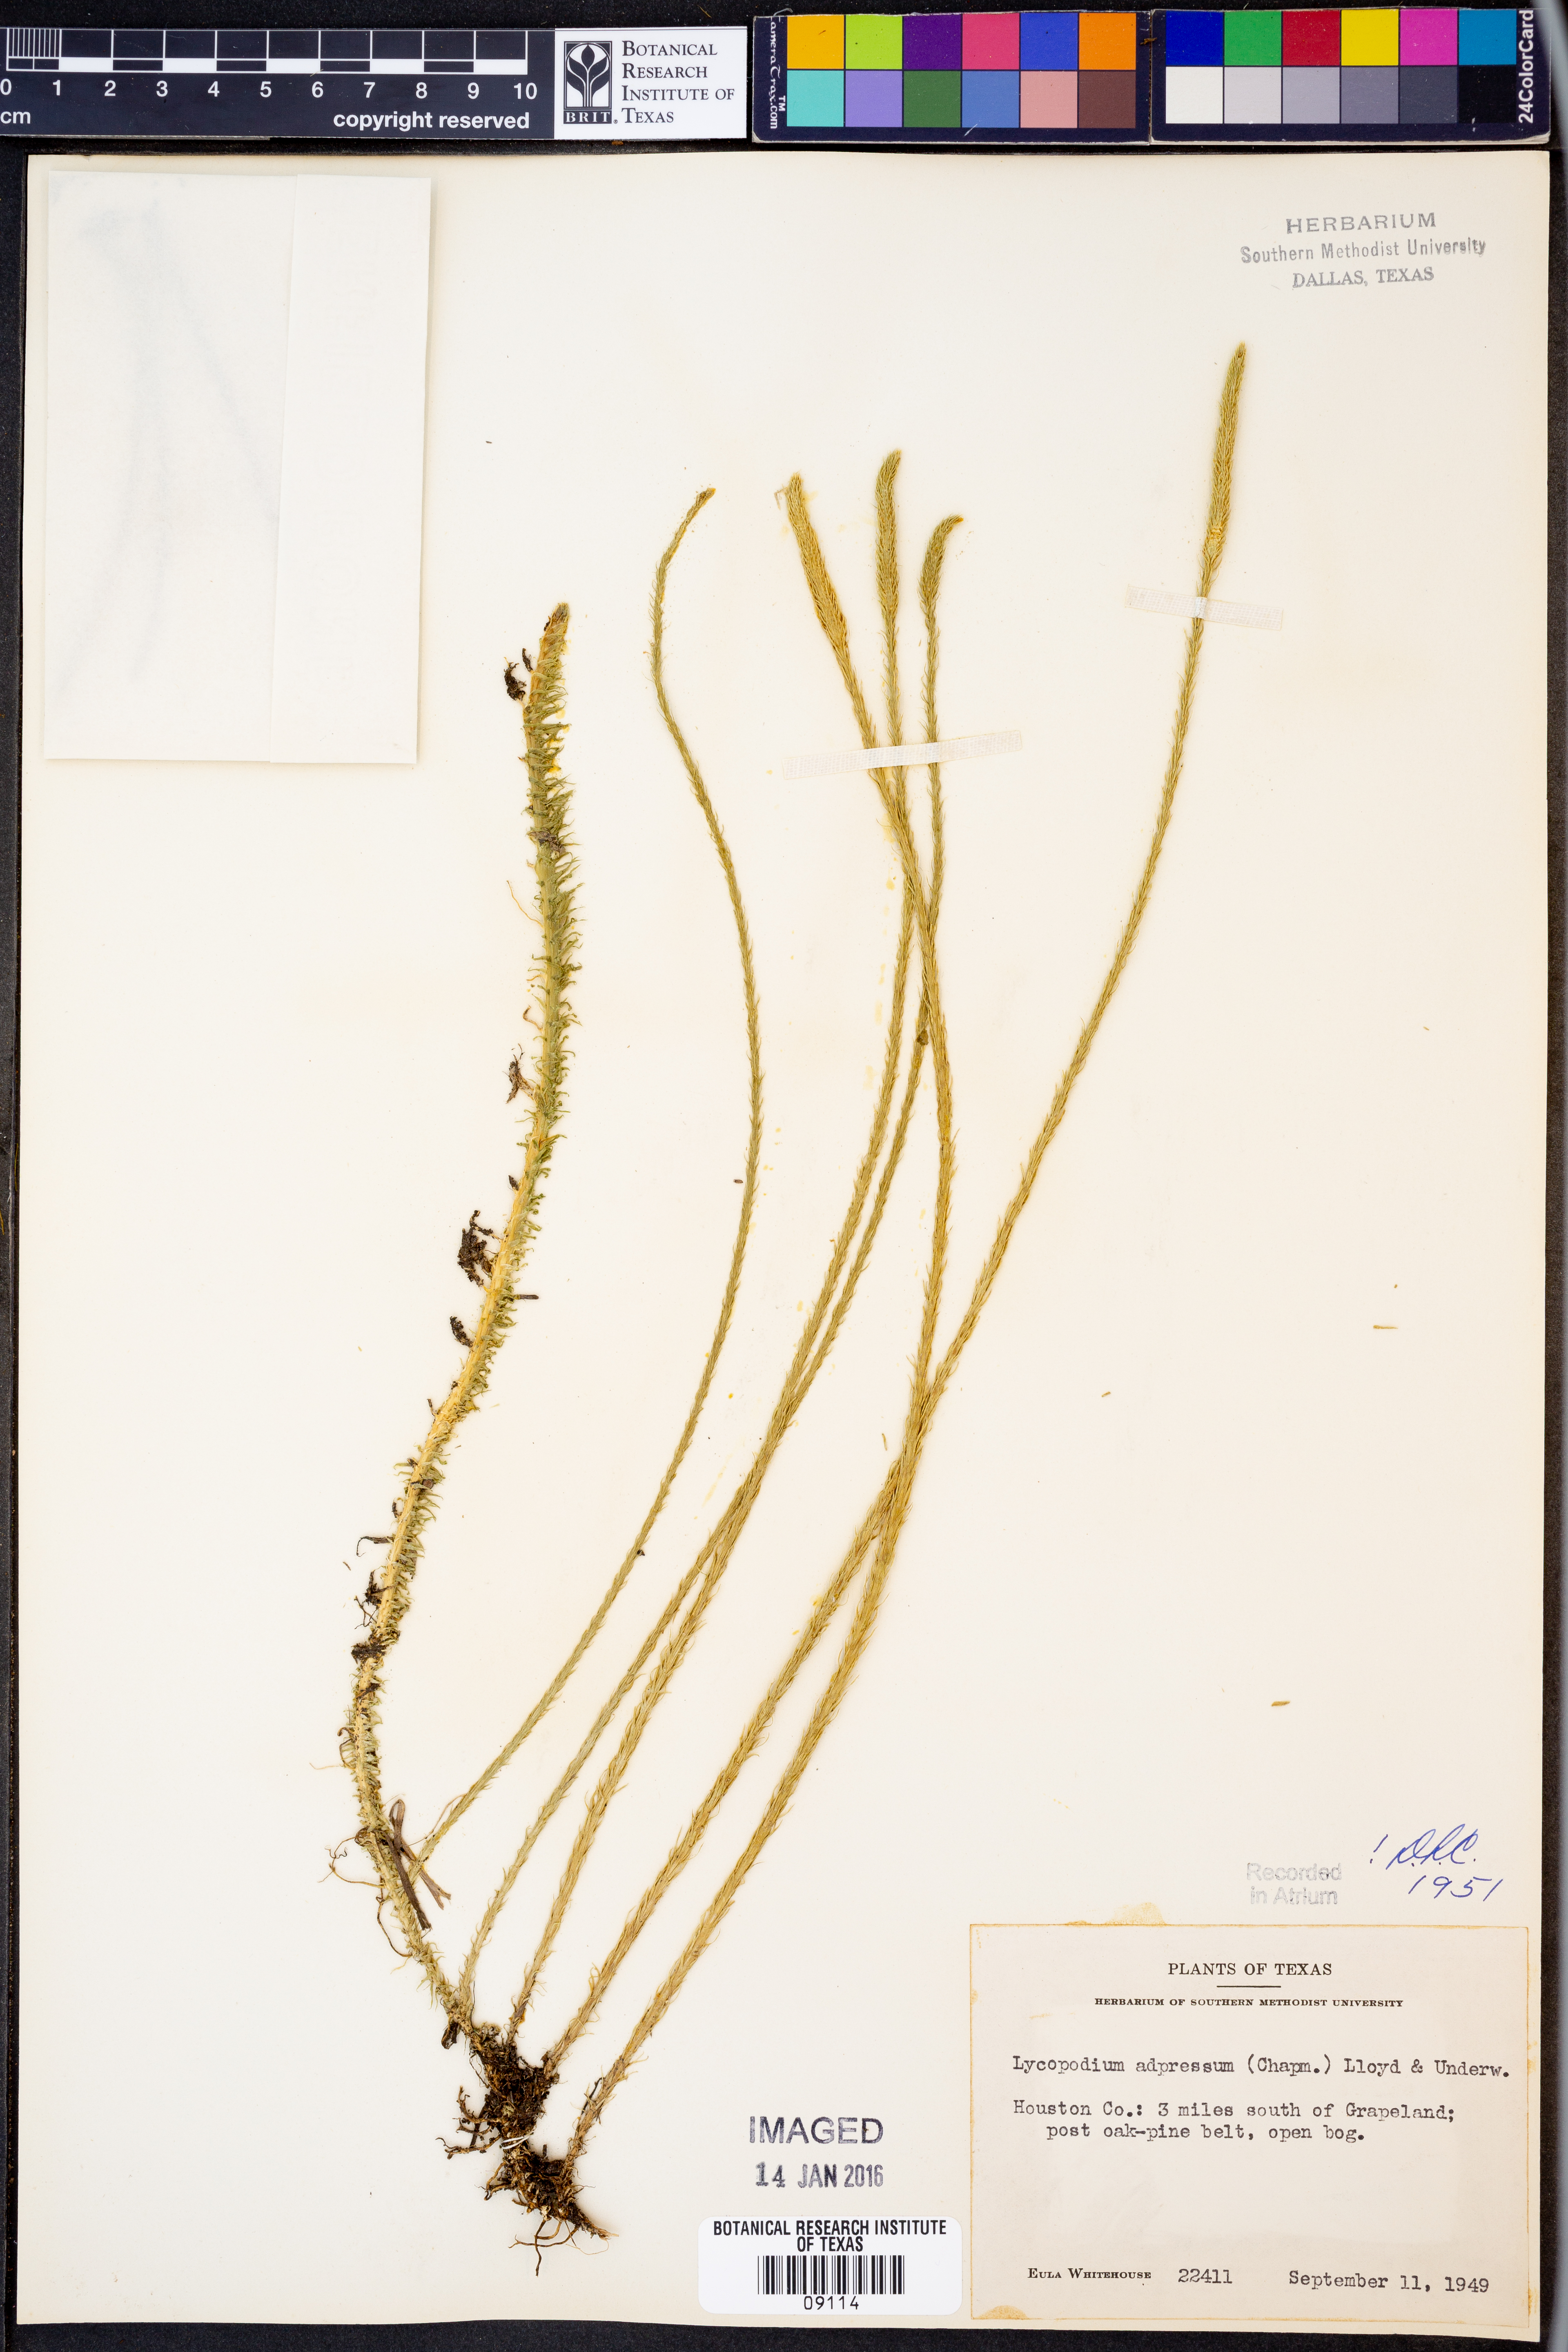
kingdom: Plantae
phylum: Tracheophyta
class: Lycopodiopsida
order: Lycopodiales
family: Lycopodiaceae
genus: Lycopodiella
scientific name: Lycopodiella appressa
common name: Appressed bog clubmoss
